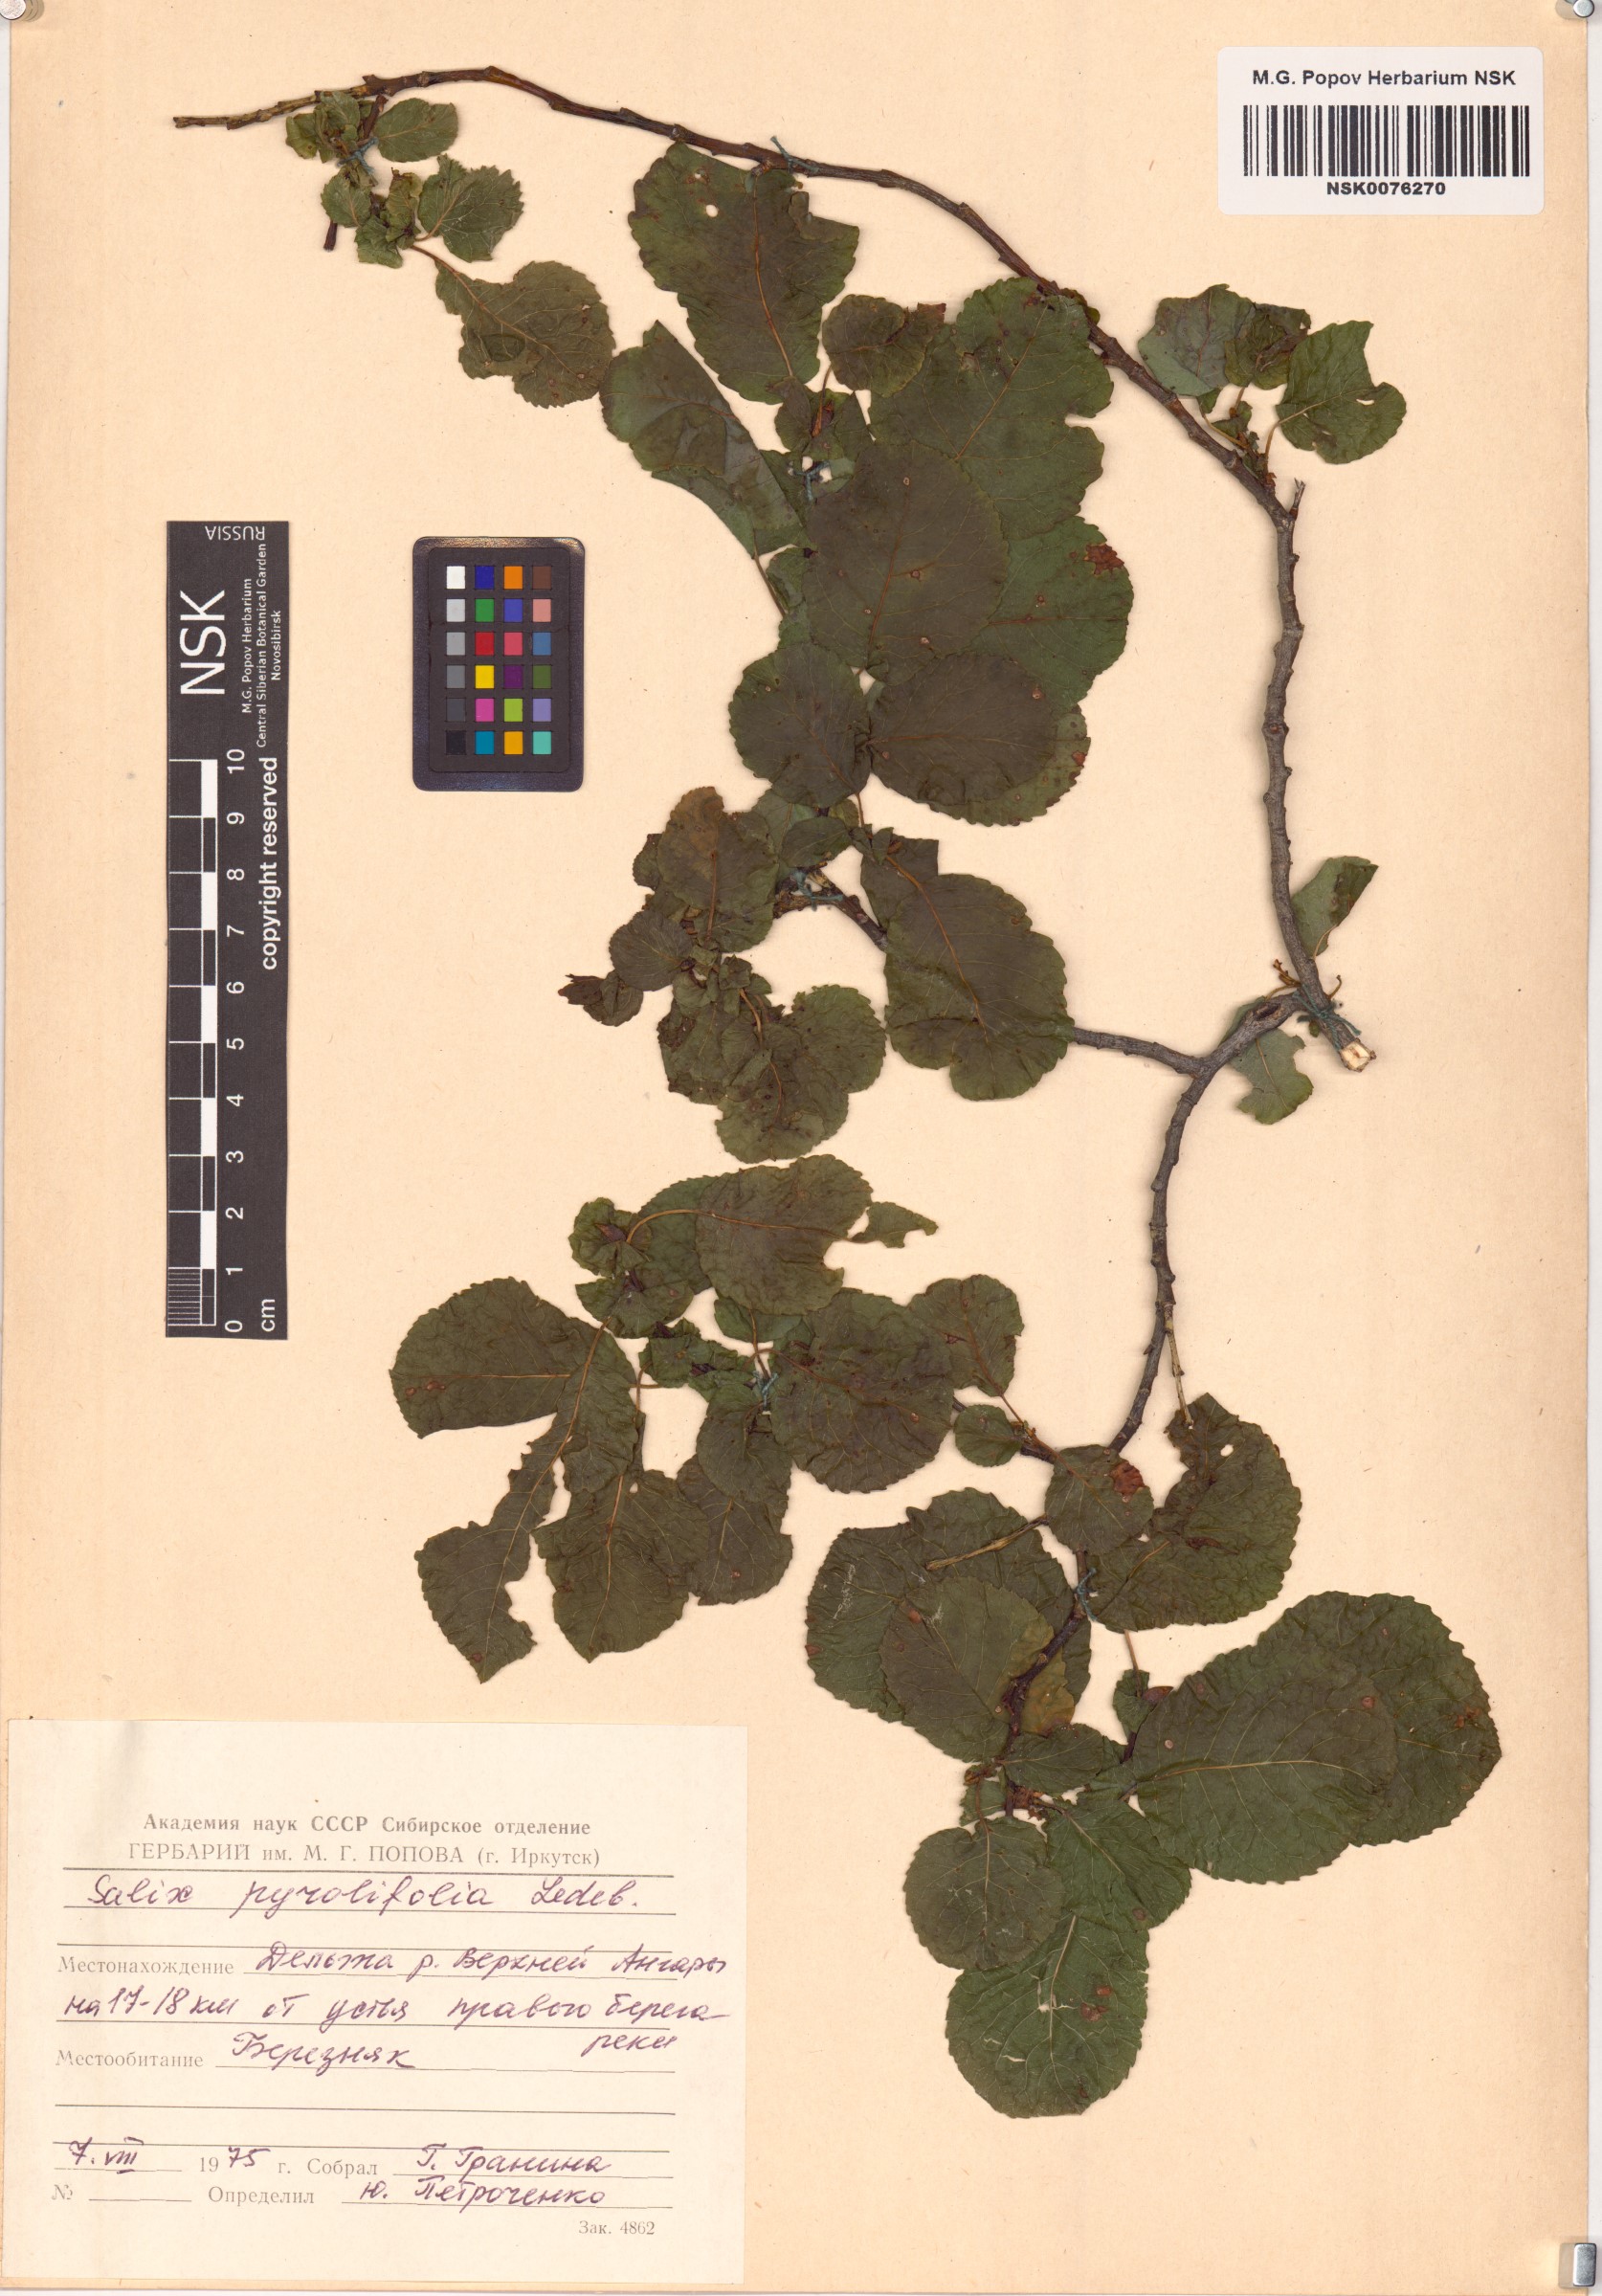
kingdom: Plantae
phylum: Tracheophyta
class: Magnoliopsida
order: Malpighiales
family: Salicaceae
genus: Salix
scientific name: Salix pyrolifolia
